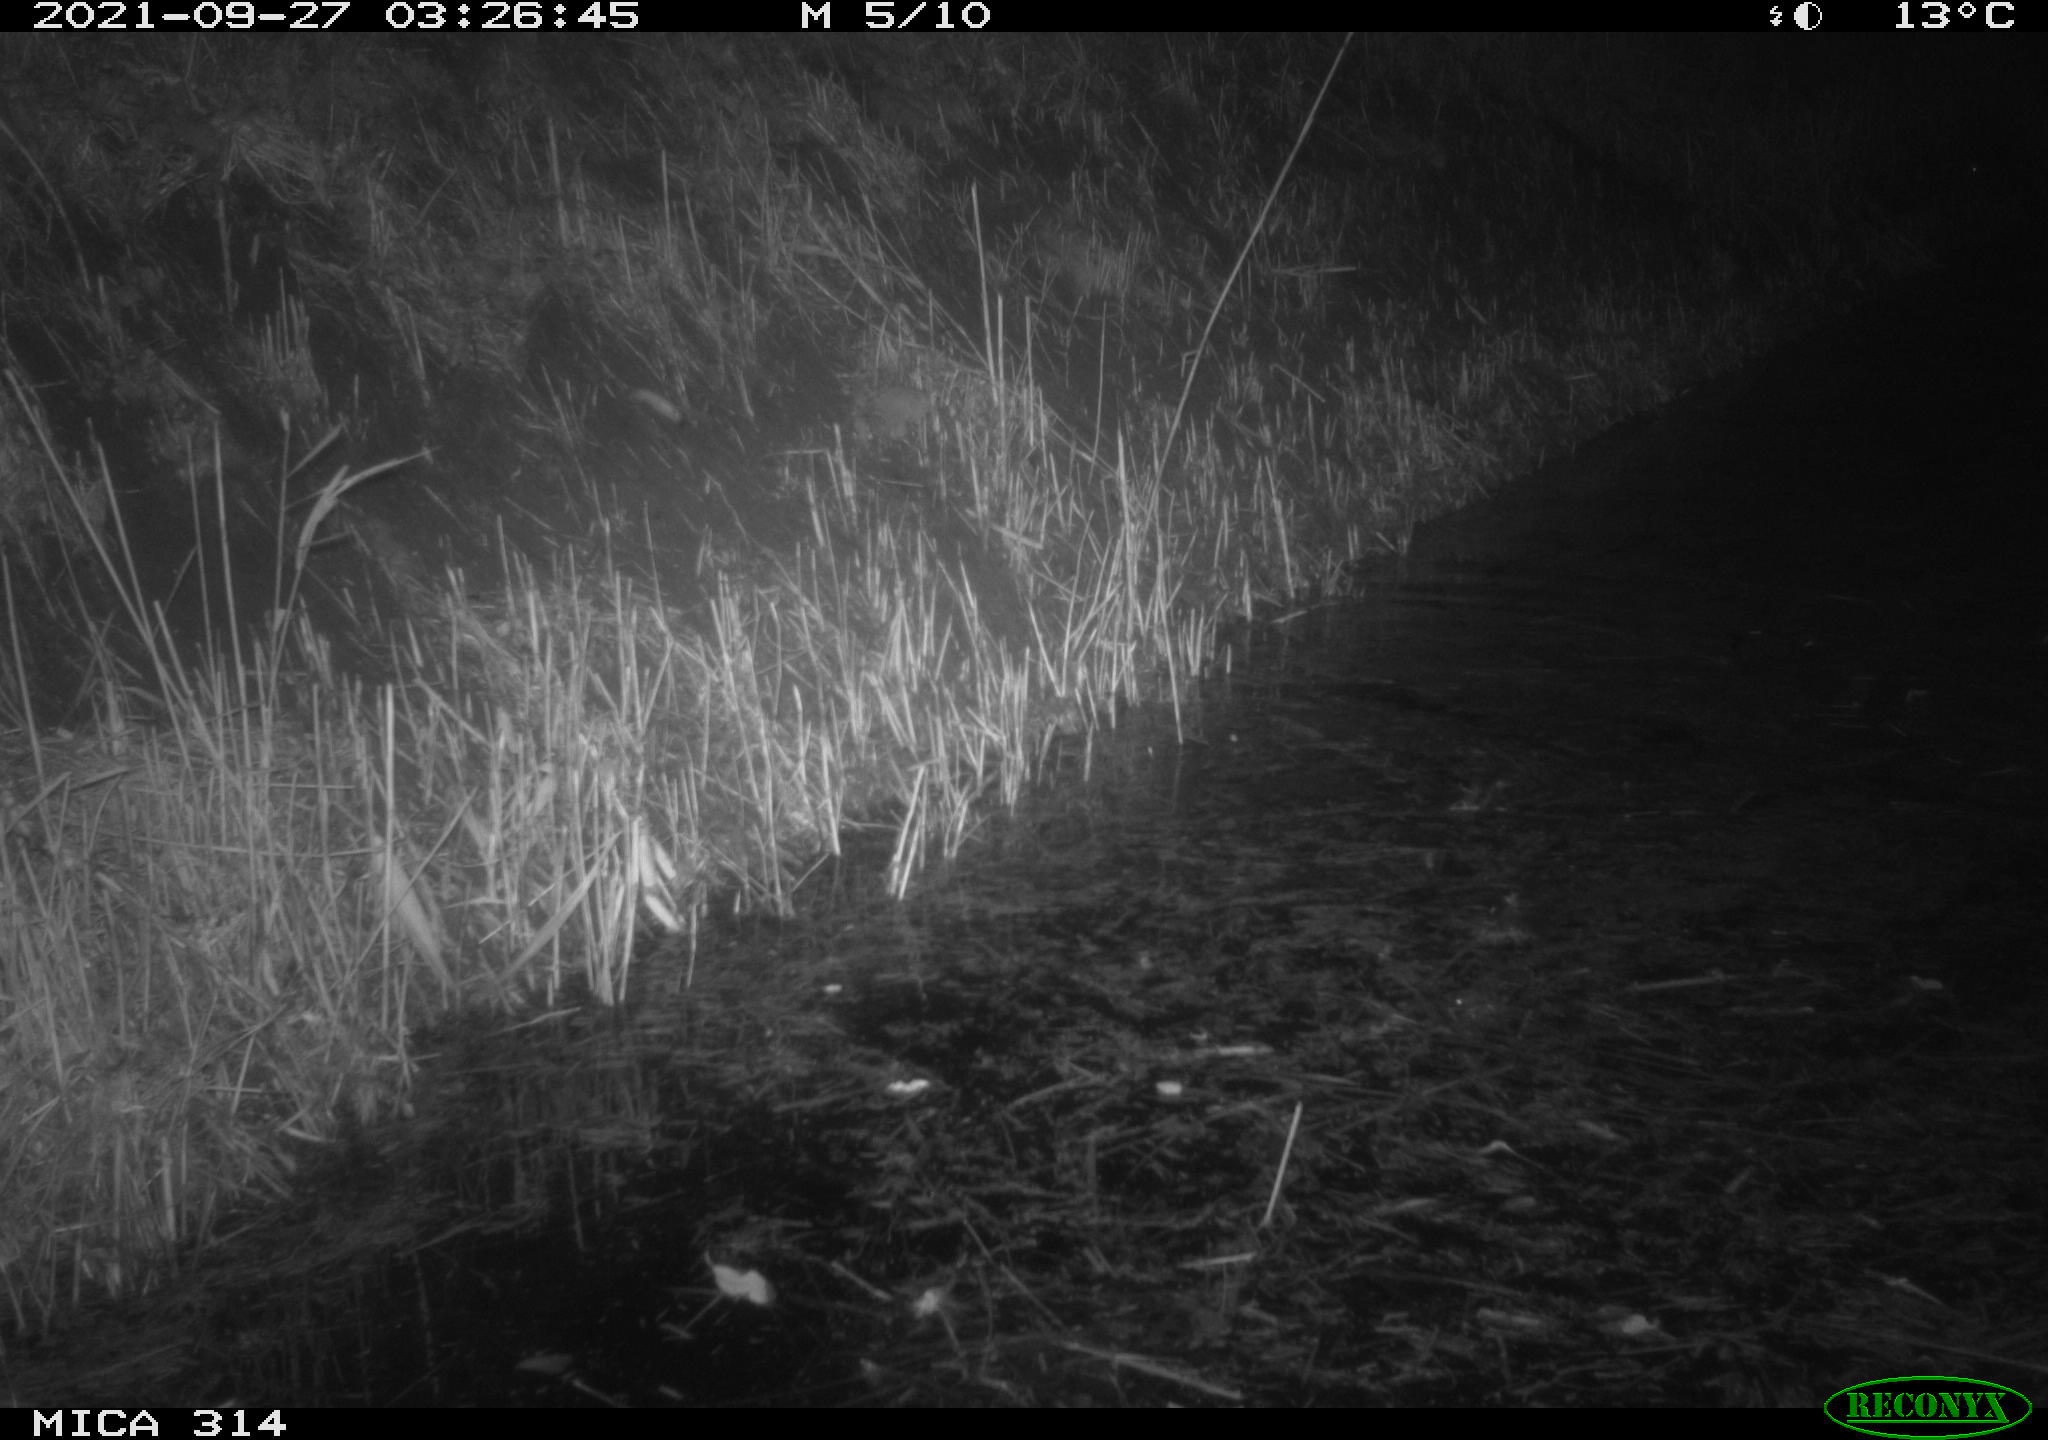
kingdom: Animalia
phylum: Chordata
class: Mammalia
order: Rodentia
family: Muridae
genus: Rattus
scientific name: Rattus norvegicus
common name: Brown rat
